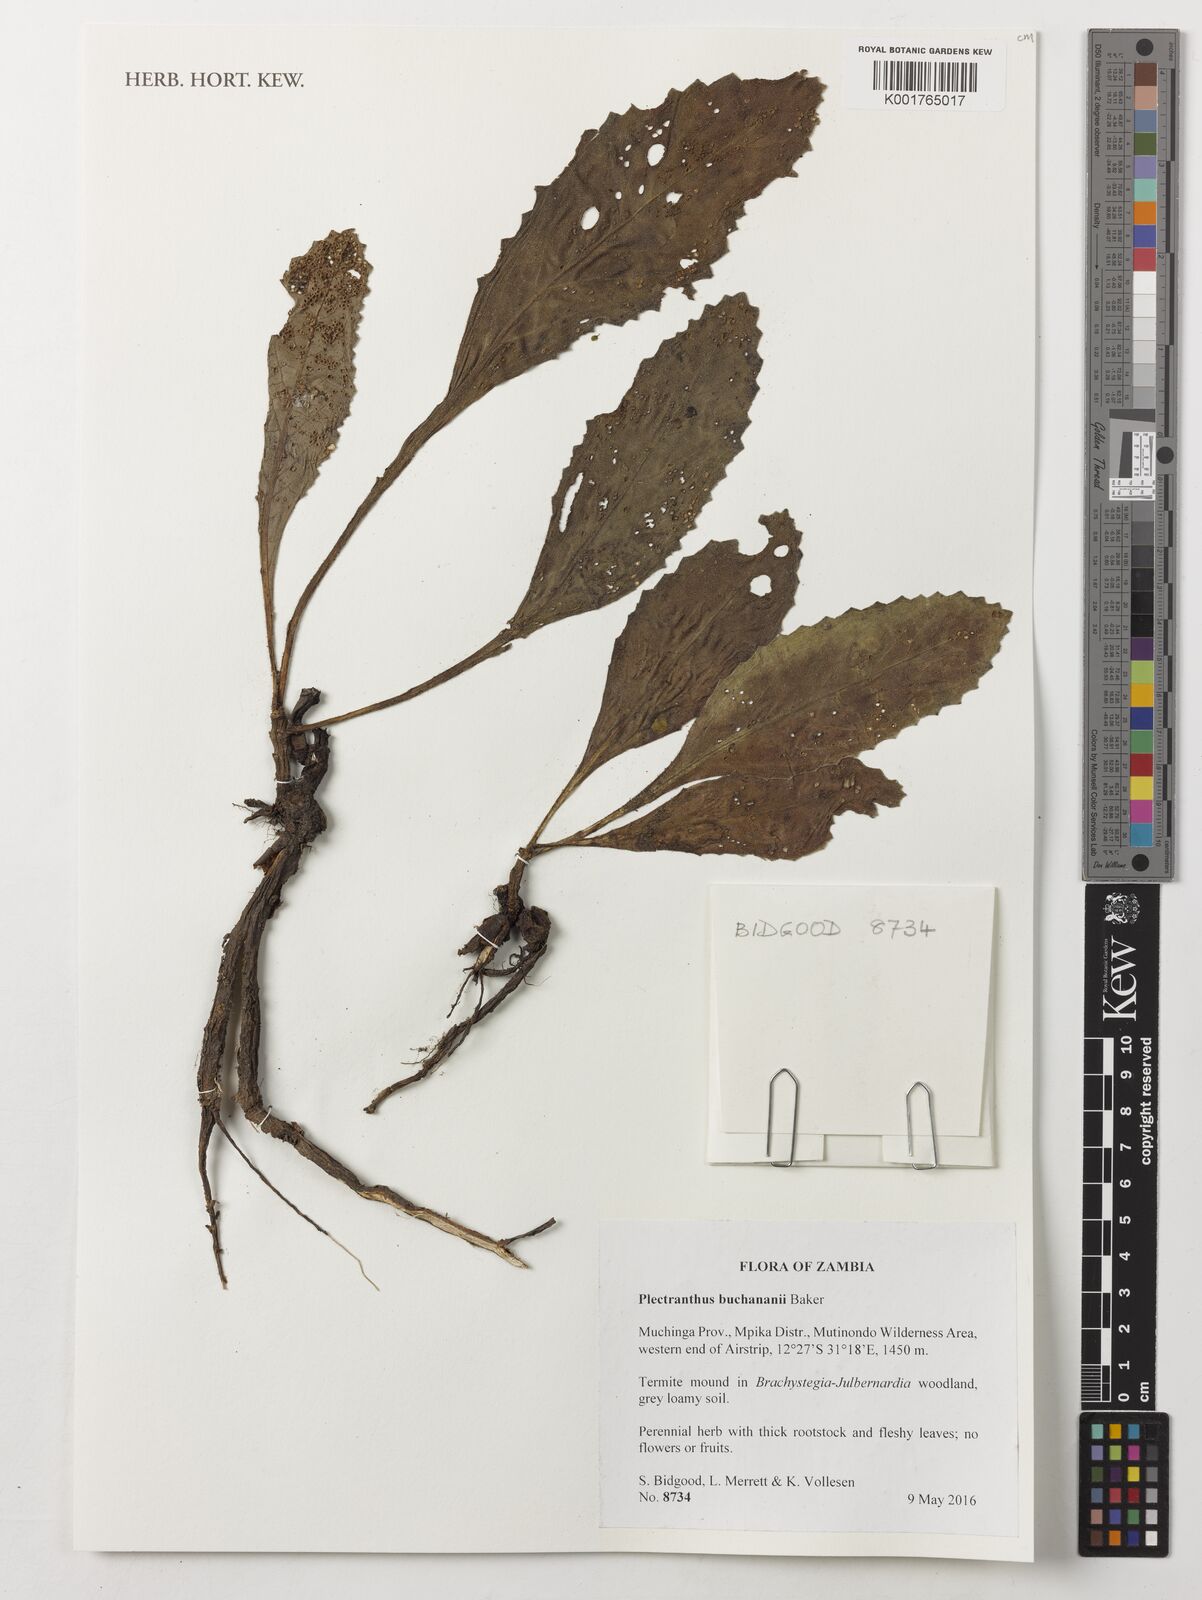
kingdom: Plantae
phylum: Tracheophyta
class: Magnoliopsida
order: Lamiales
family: Lamiaceae
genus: Coleus
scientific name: Coleus buchananii
